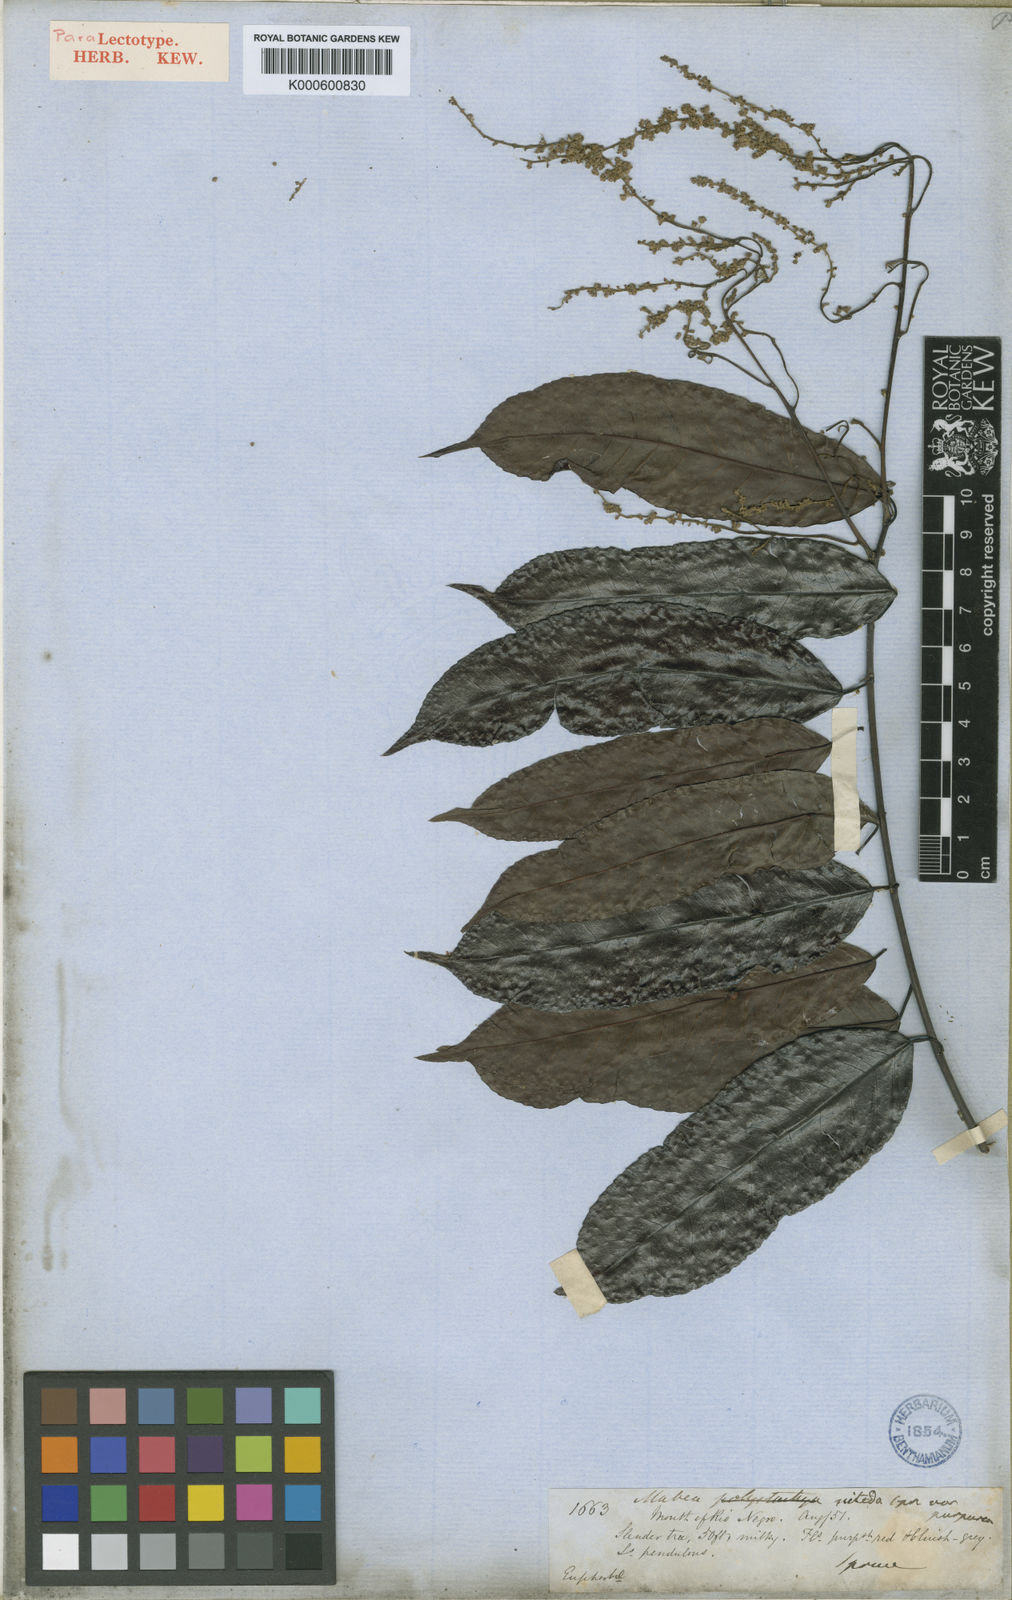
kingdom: Plantae
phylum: Tracheophyta
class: Magnoliopsida
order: Malpighiales
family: Euphorbiaceae
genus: Mabea
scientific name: Mabea
